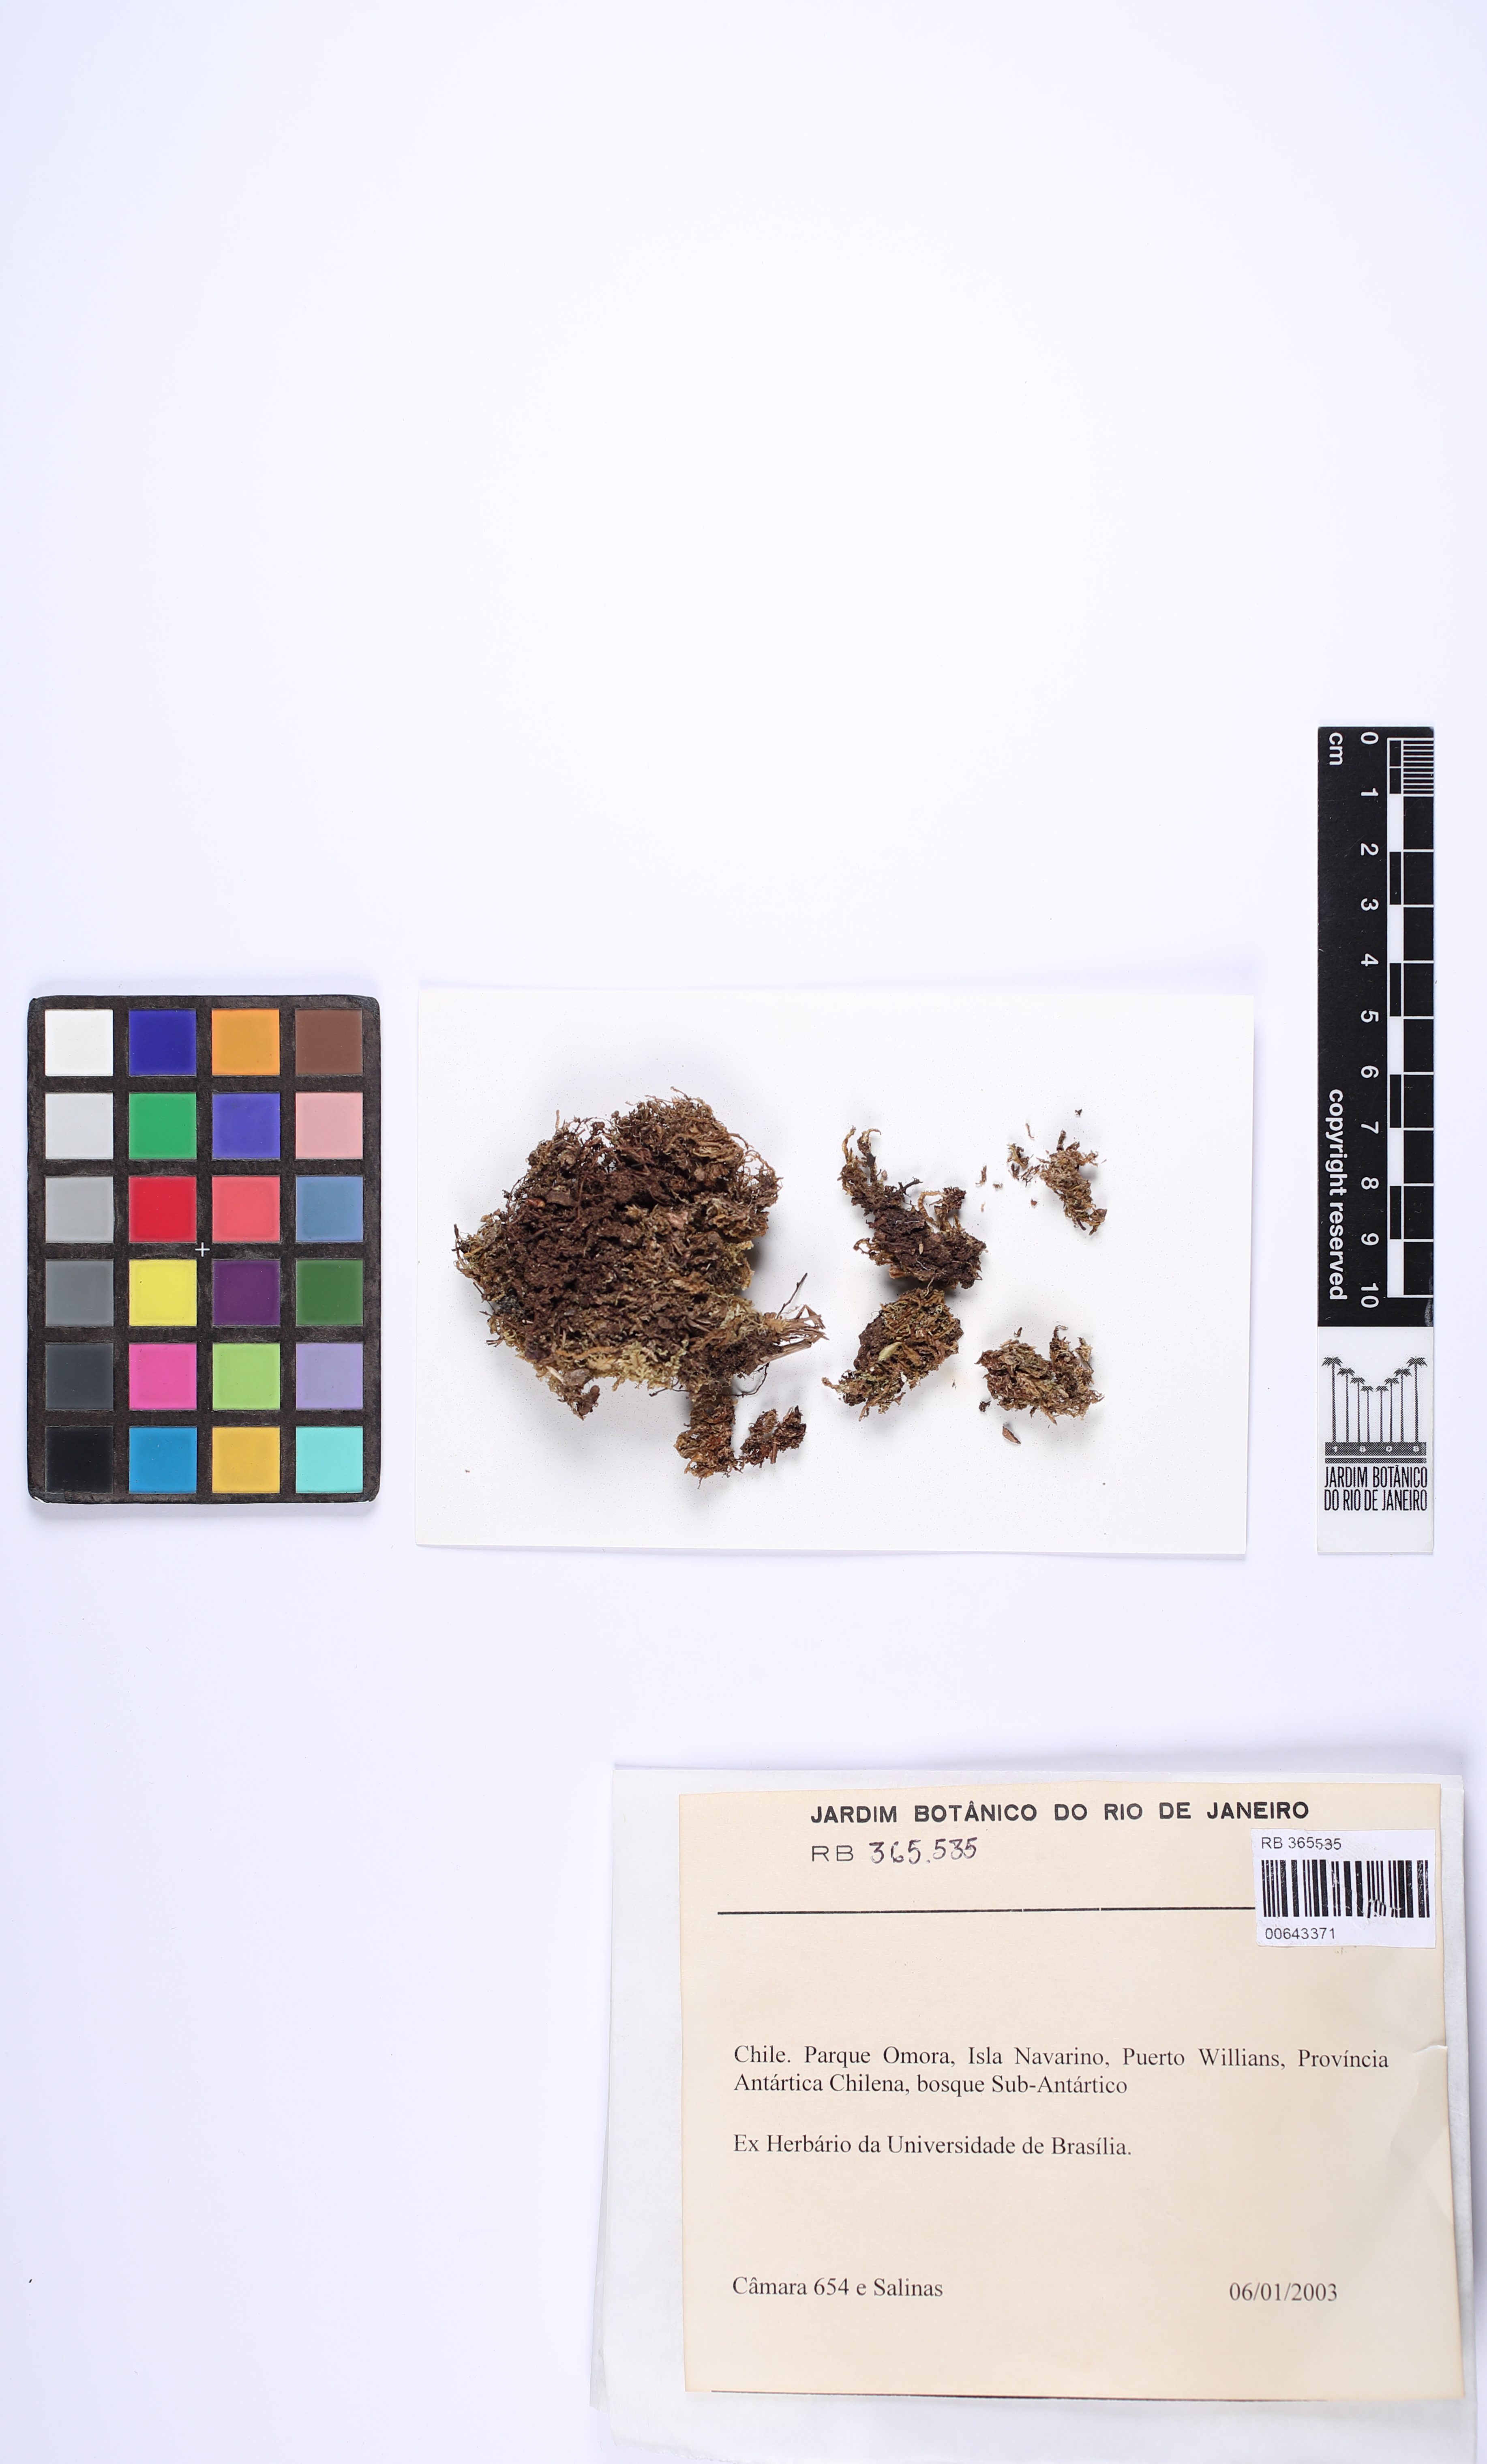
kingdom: Plantae
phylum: Bryophyta
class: Bryopsida
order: Dicranales
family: Dicranaceae
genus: Holomitrium
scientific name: Holomitrium
